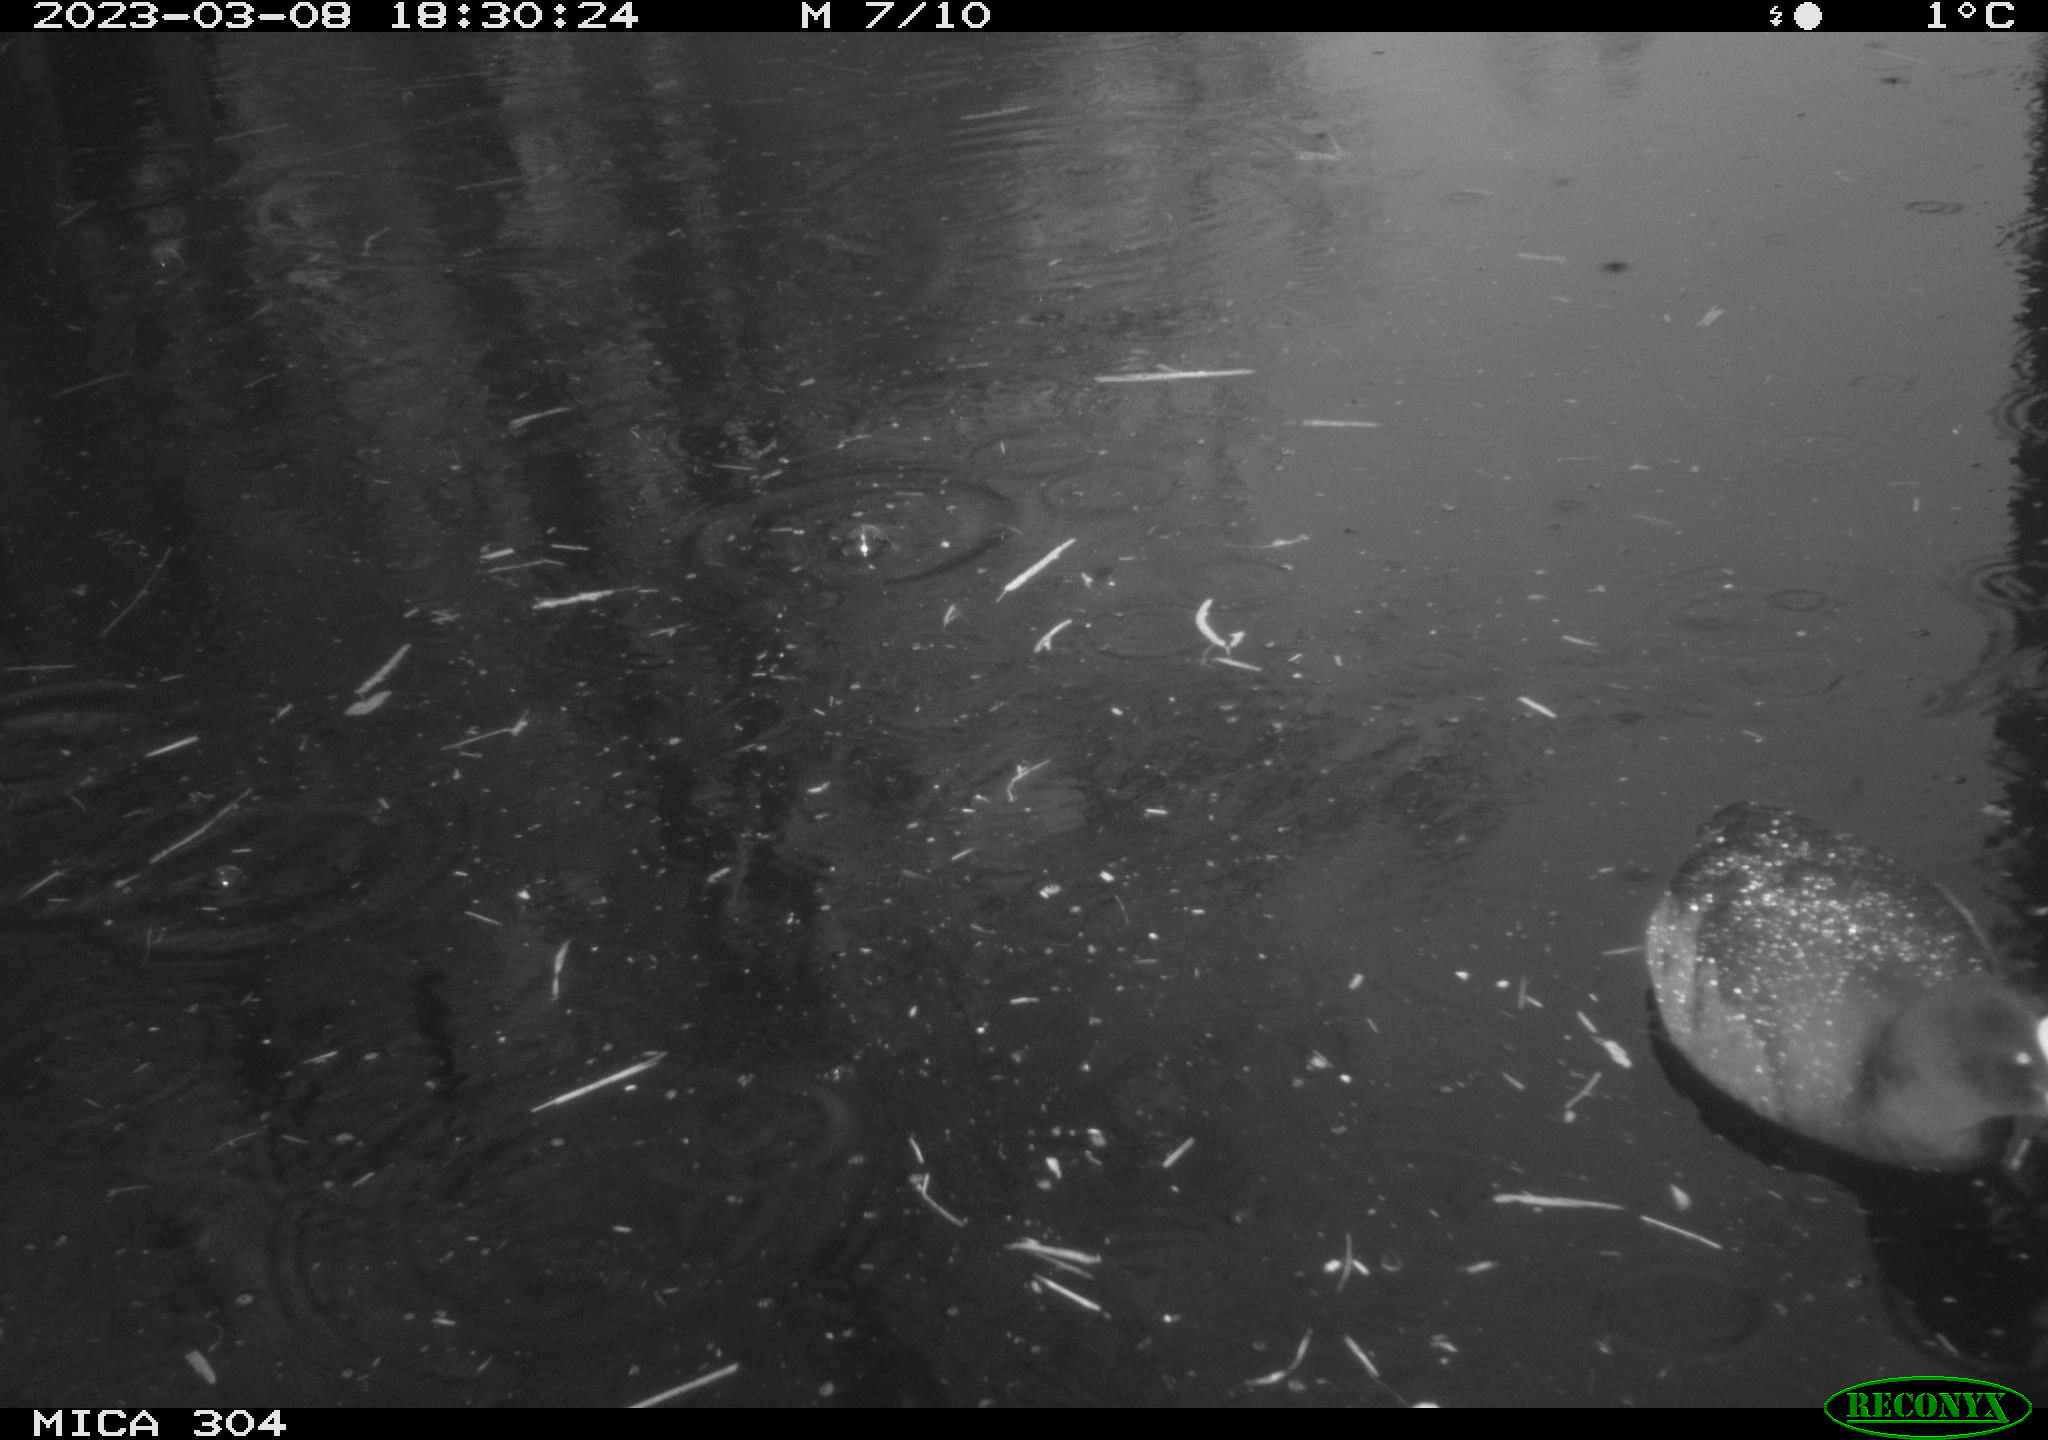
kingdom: Animalia
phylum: Chordata
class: Aves
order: Gruiformes
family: Rallidae
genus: Fulica
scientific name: Fulica atra
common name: Eurasian coot
